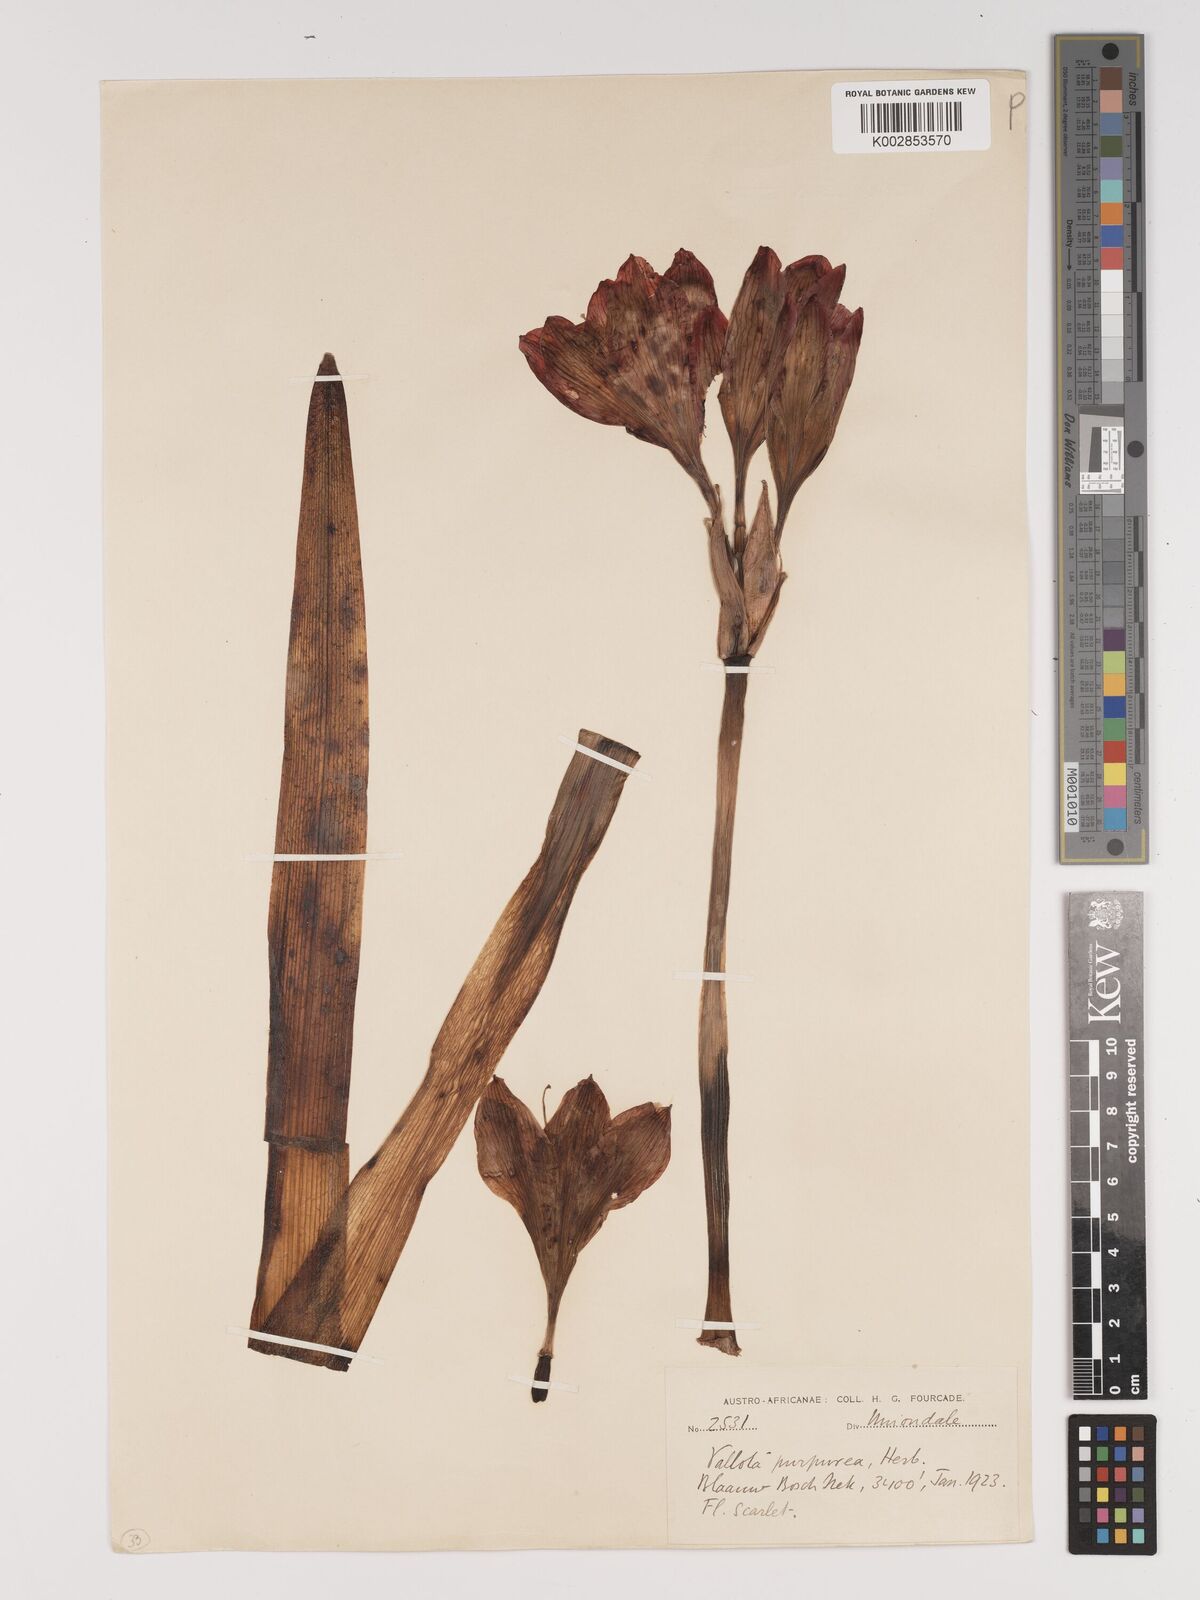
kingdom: Plantae
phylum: Tracheophyta
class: Liliopsida
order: Asparagales
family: Amaryllidaceae
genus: Cyrtanthus
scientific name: Cyrtanthus elatus
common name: Scarborough-lily
